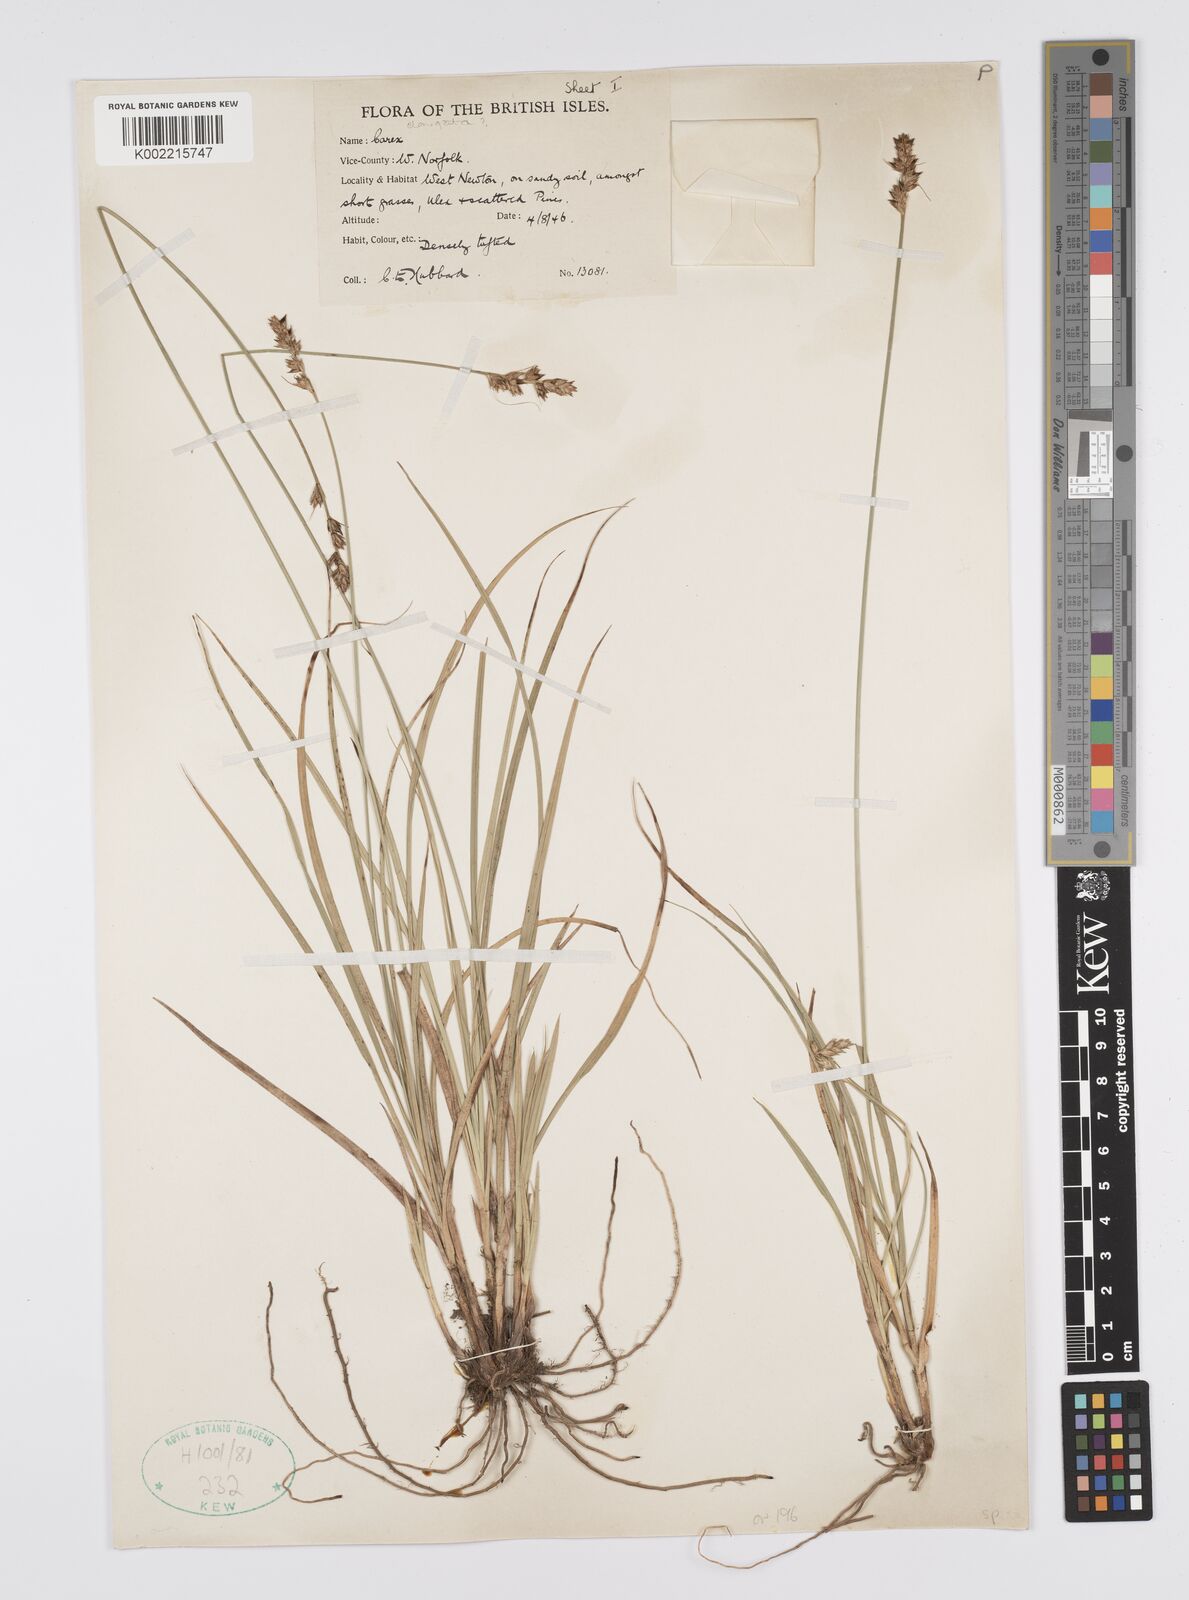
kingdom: Plantae
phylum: Tracheophyta
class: Liliopsida
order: Poales
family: Cyperaceae
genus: Carex
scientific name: Carex
